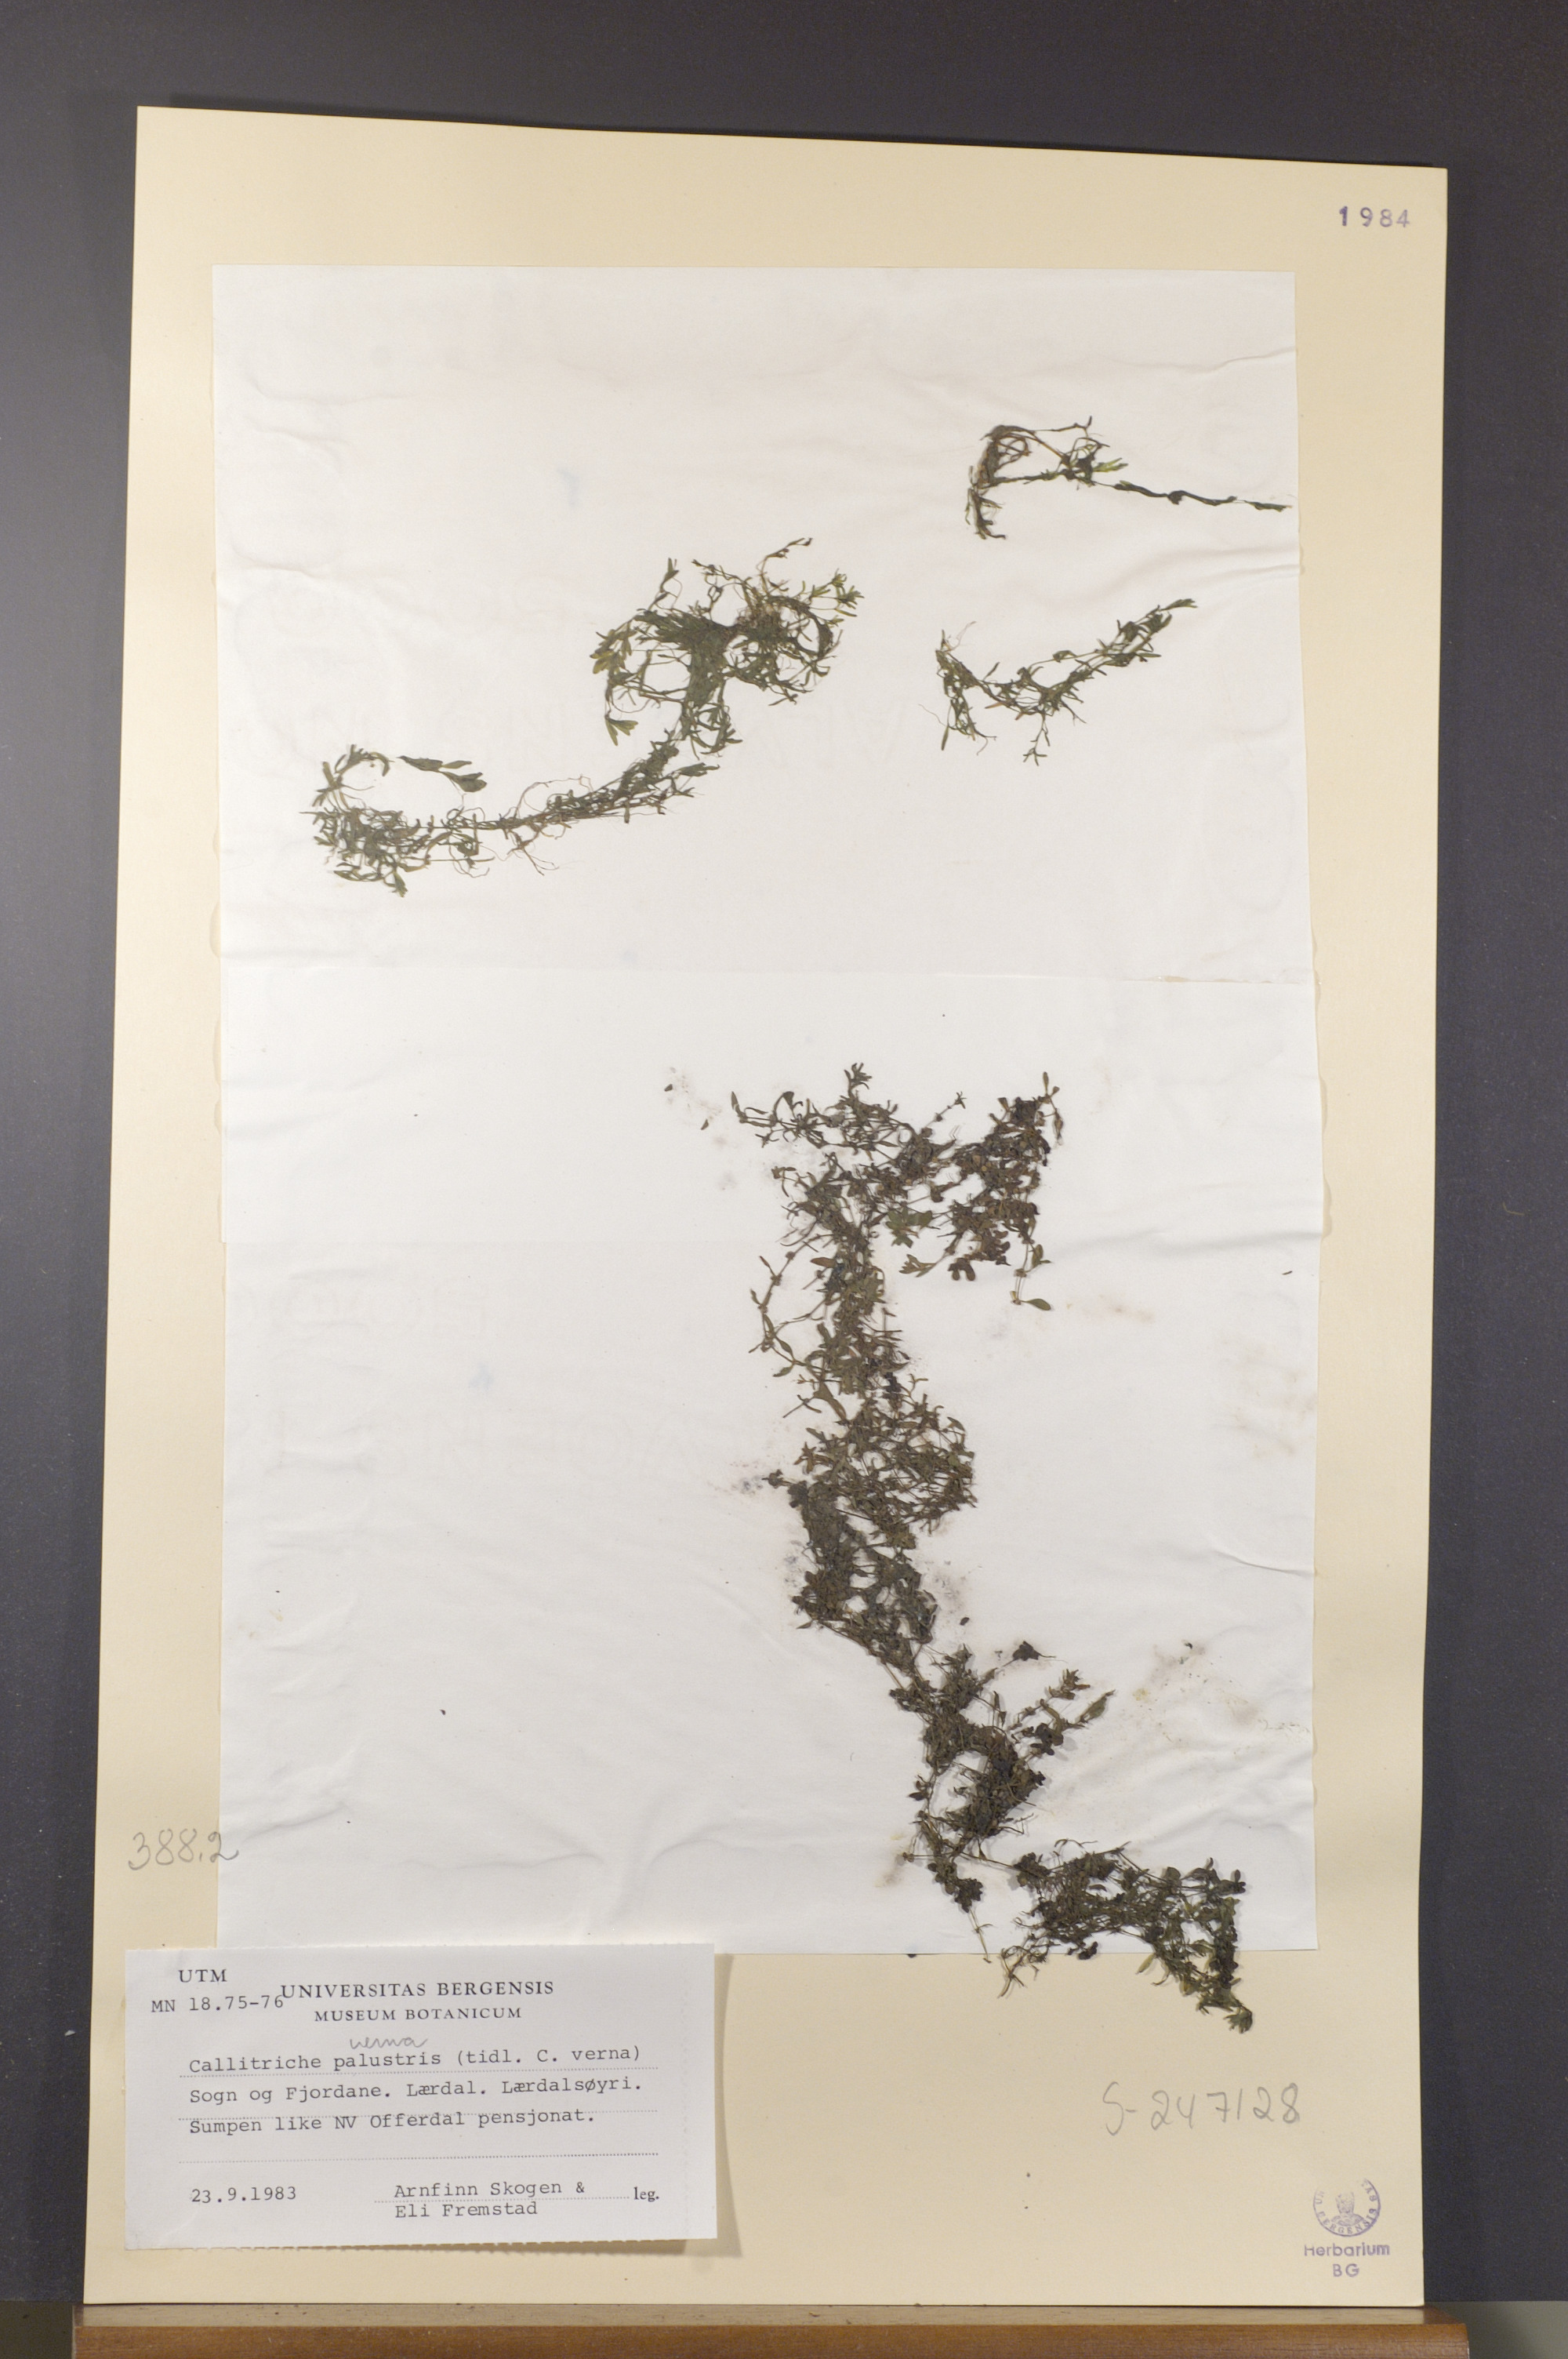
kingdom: Plantae
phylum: Tracheophyta
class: Magnoliopsida
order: Lamiales
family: Plantaginaceae
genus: Callitriche
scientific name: Callitriche palustris
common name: Spring water-starwort
